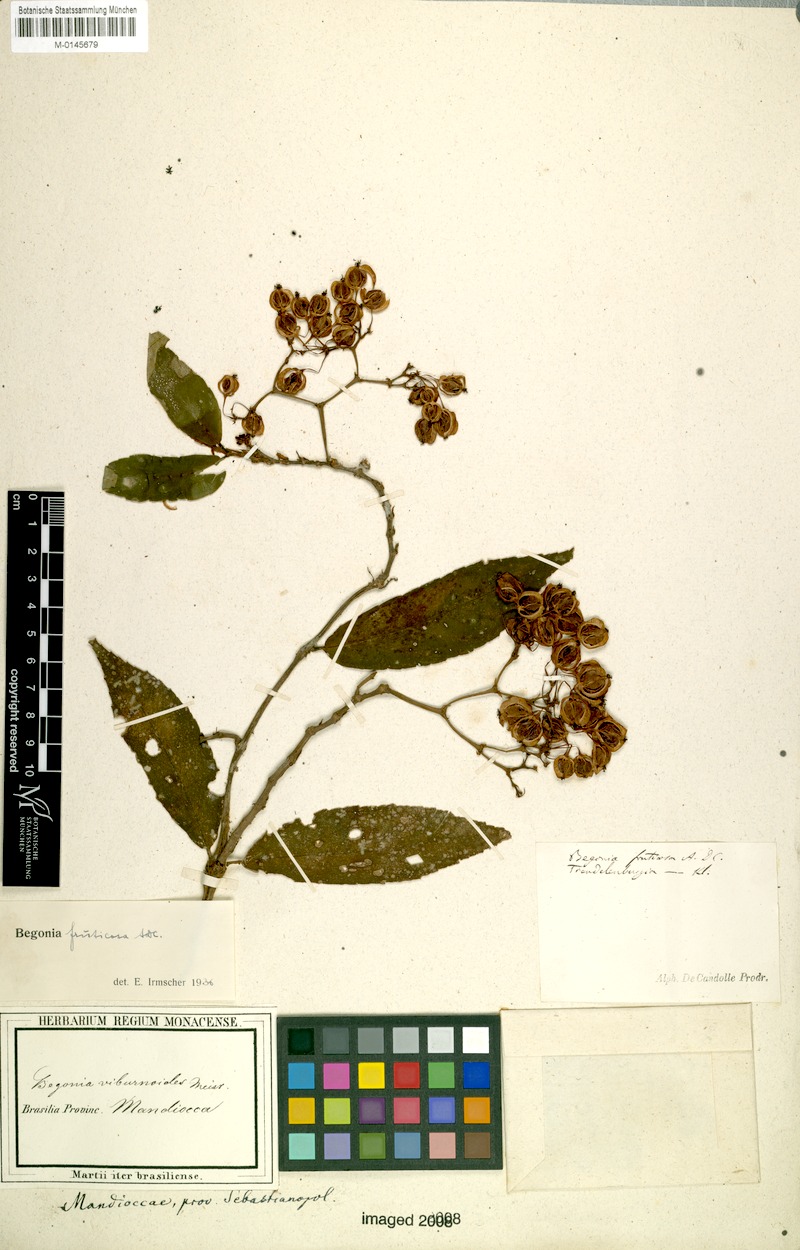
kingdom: Plantae
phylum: Tracheophyta
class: Magnoliopsida
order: Cucurbitales
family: Begoniaceae
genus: Begonia
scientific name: Begonia fruticosa
